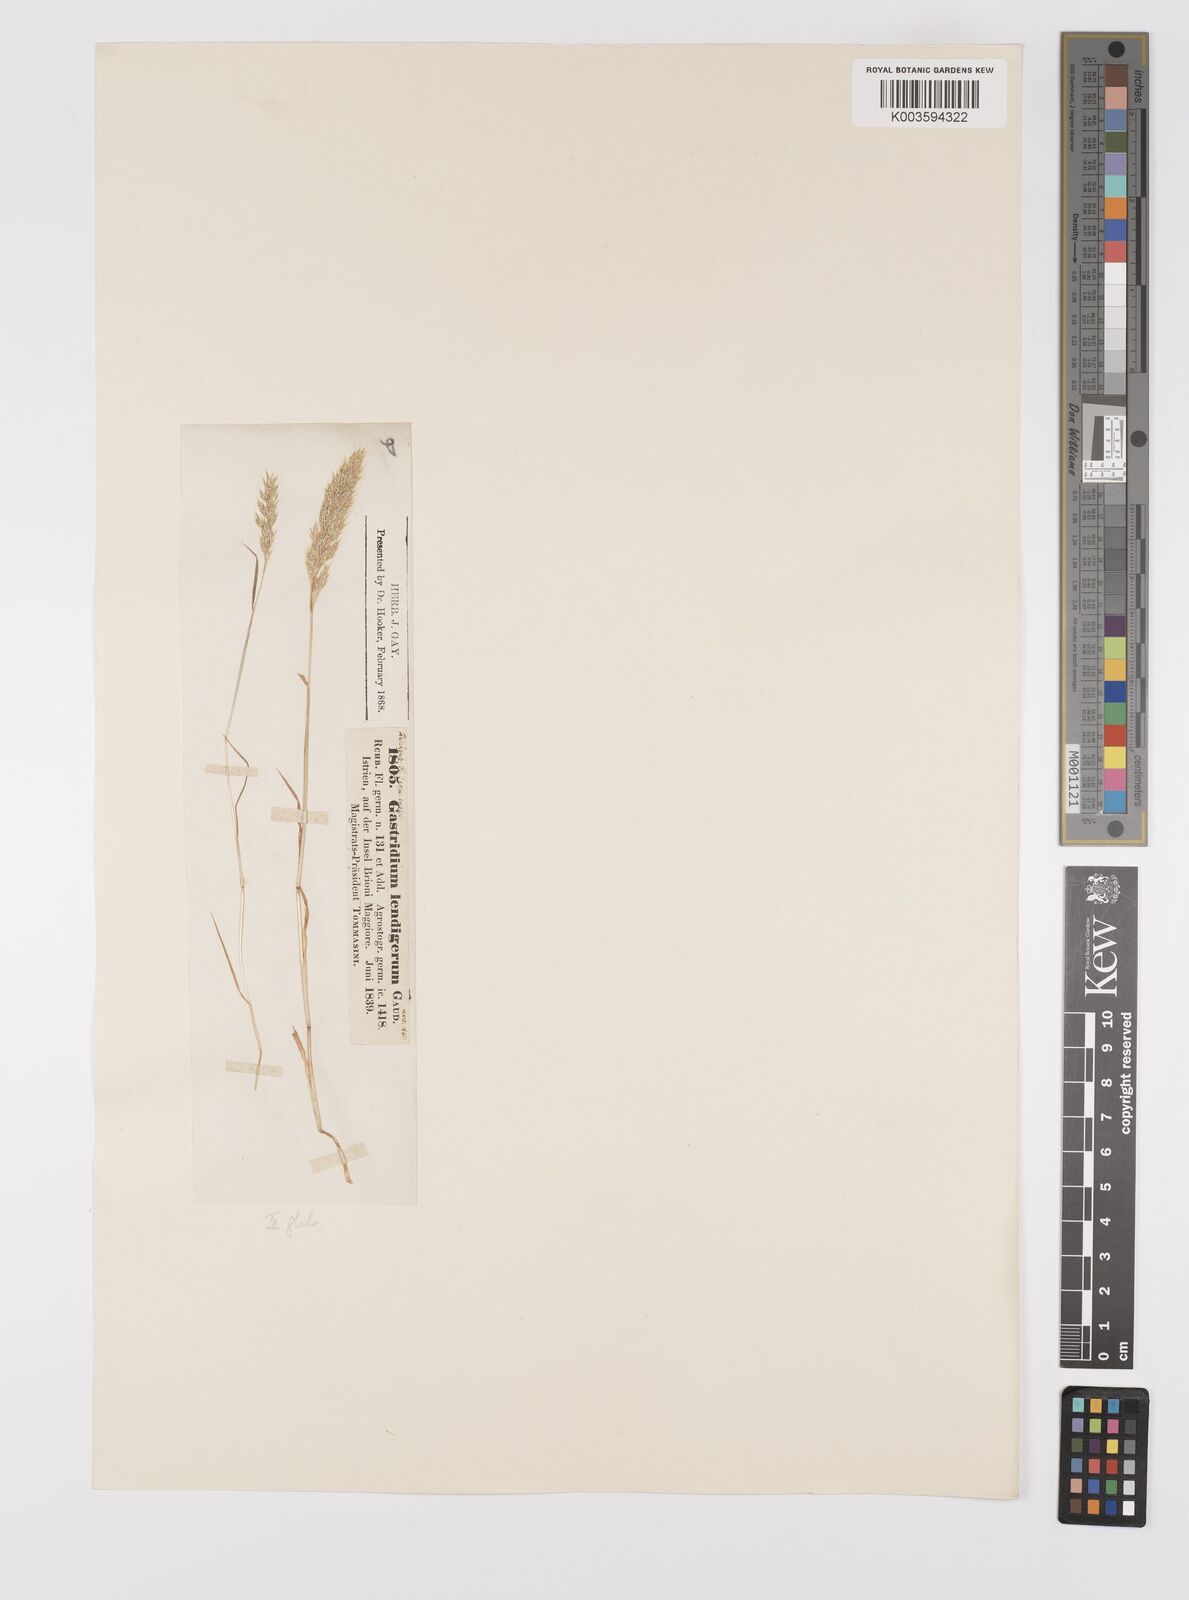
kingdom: Plantae
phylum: Tracheophyta
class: Liliopsida
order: Poales
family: Poaceae
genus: Gastridium
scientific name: Gastridium ventricosum
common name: Nit-grass
